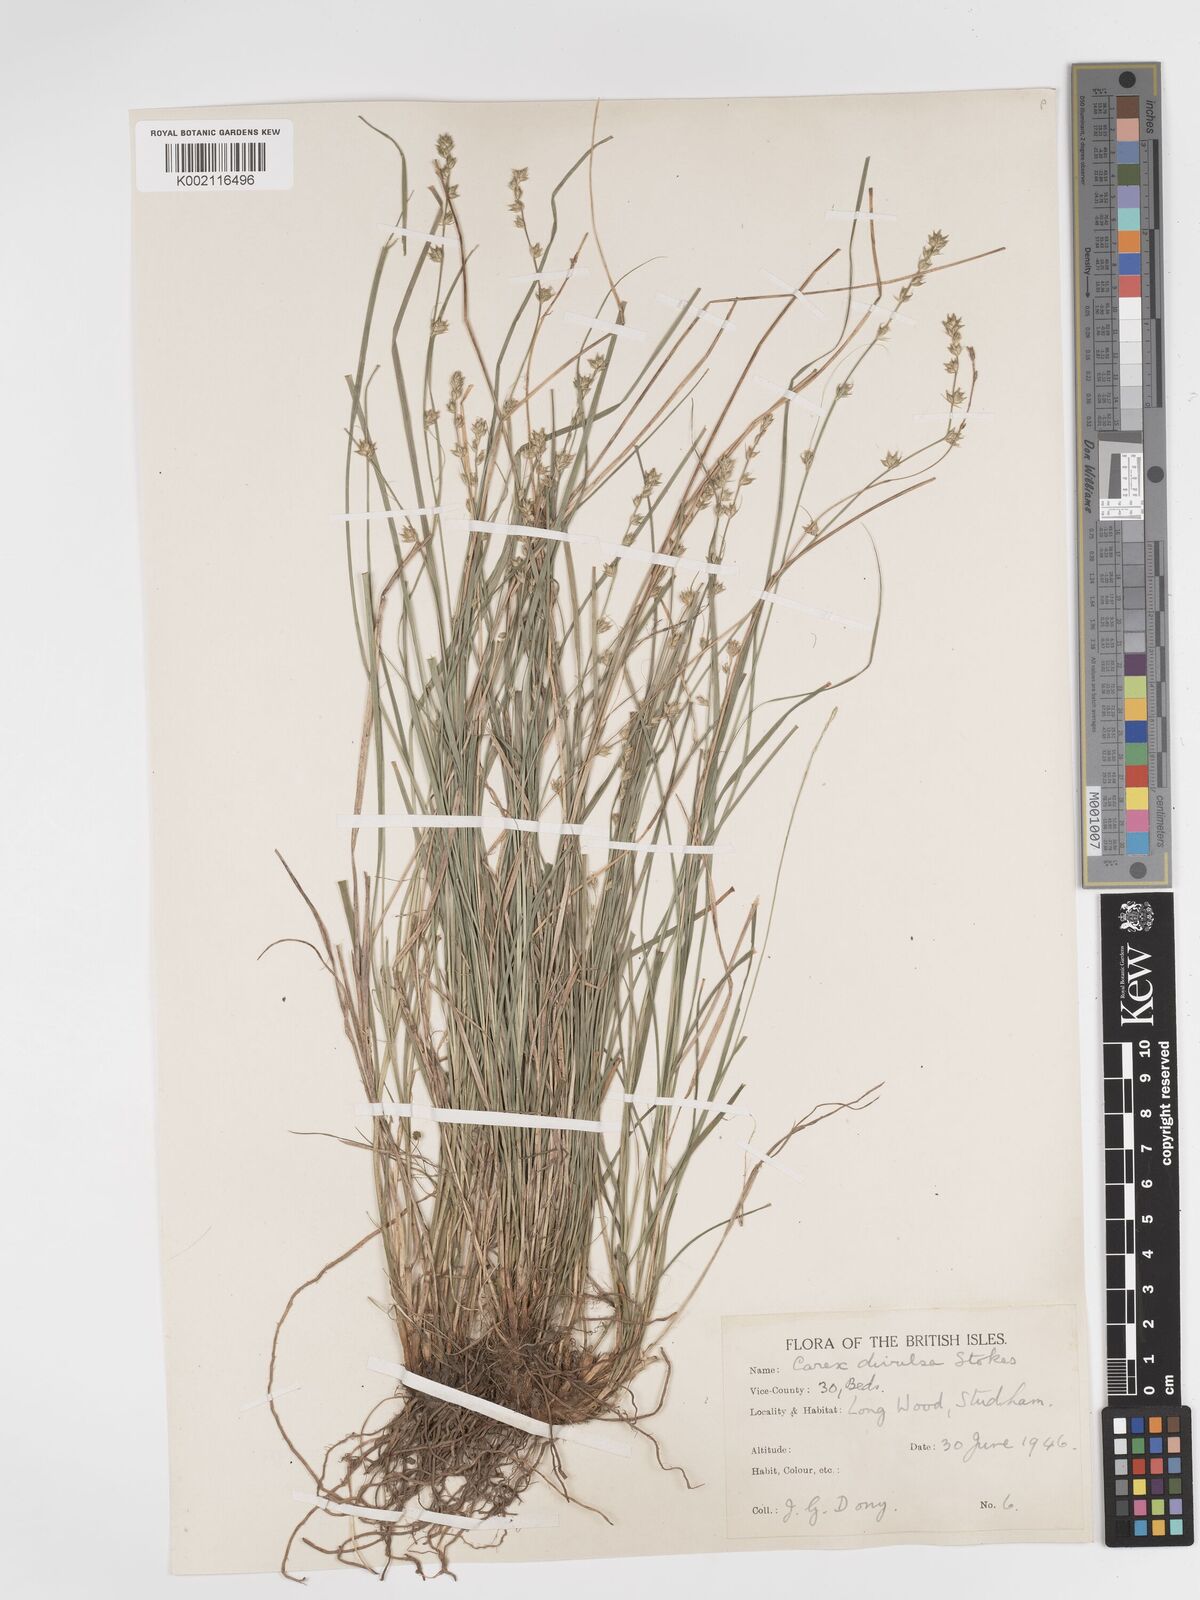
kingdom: Plantae
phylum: Tracheophyta
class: Liliopsida
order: Poales
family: Cyperaceae
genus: Carex
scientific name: Carex divulsa
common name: Grassland sedge
